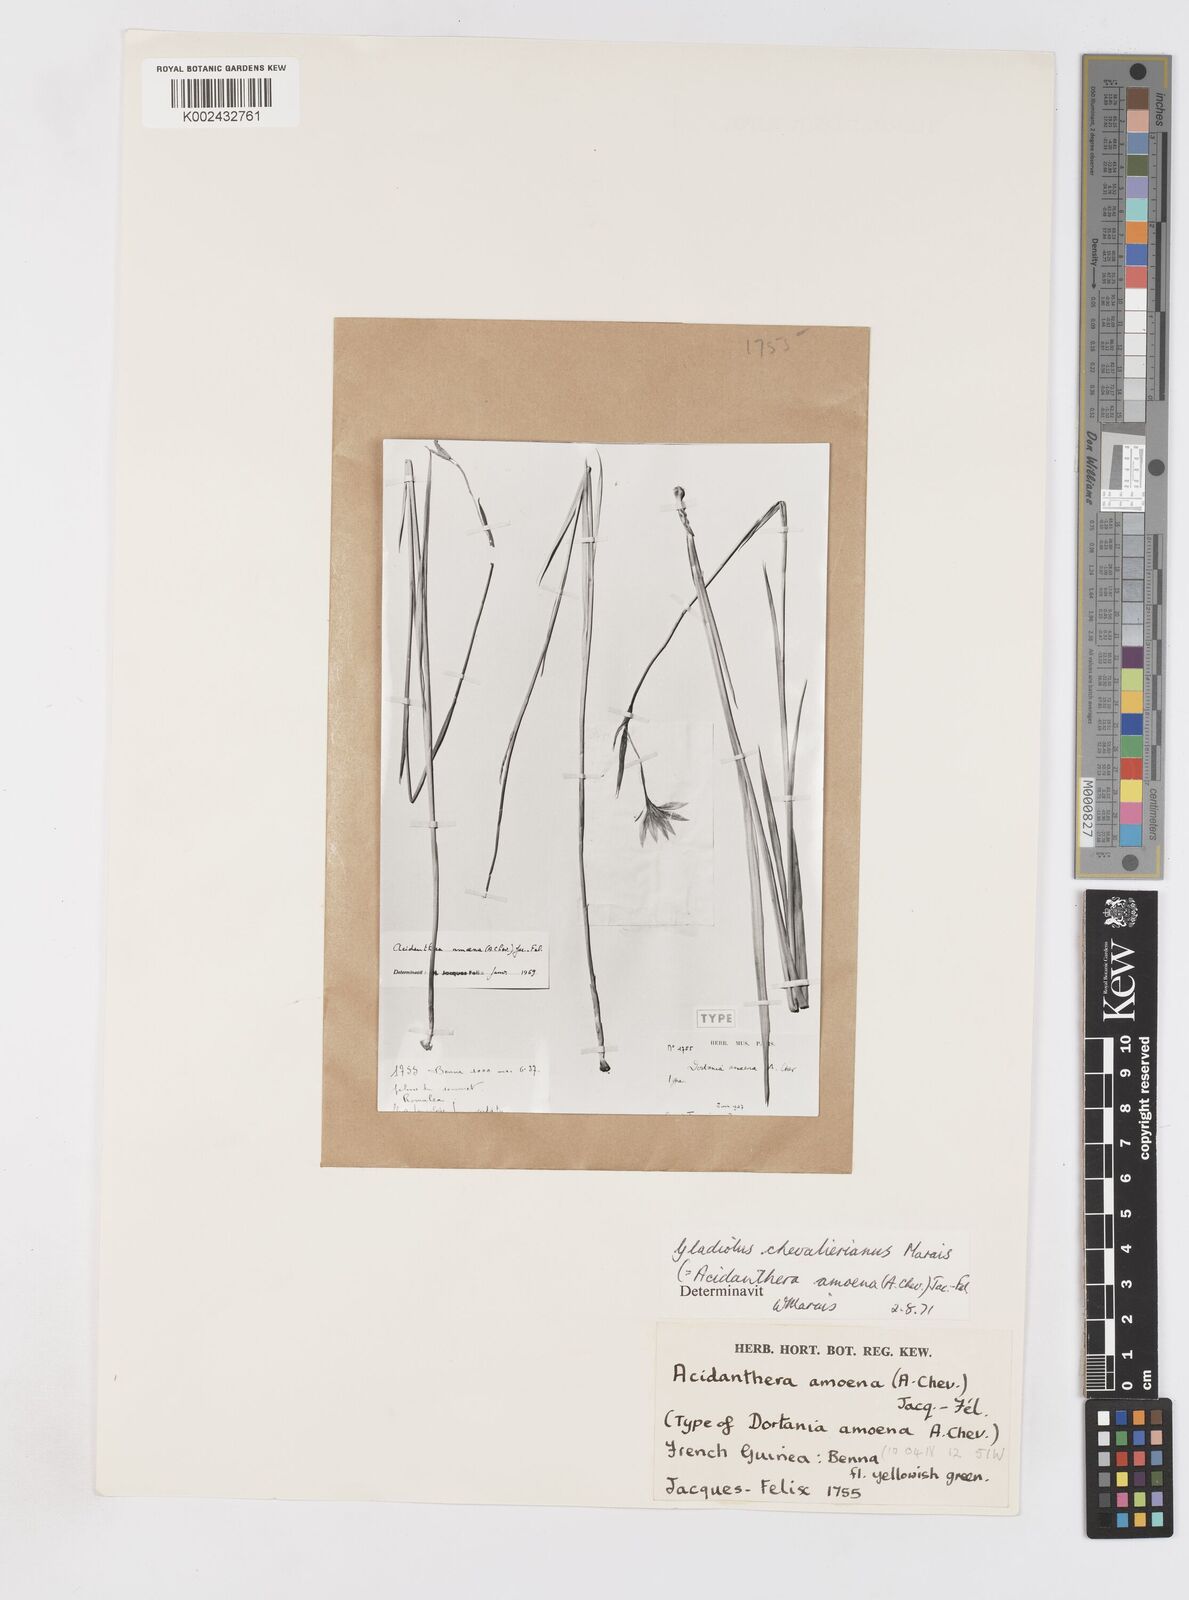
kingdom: Plantae
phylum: Tracheophyta
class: Liliopsida
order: Asparagales
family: Iridaceae
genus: Gladiolus
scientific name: Gladiolus chevalierianus
